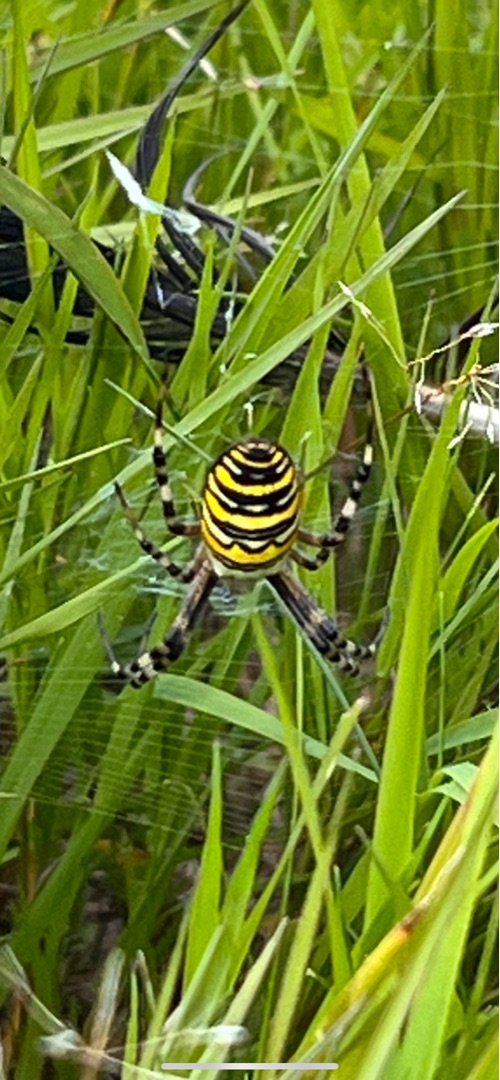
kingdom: Animalia
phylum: Arthropoda
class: Arachnida
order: Araneae
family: Araneidae
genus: Argiope
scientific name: Argiope bruennichi
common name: Hvepseedderkop
